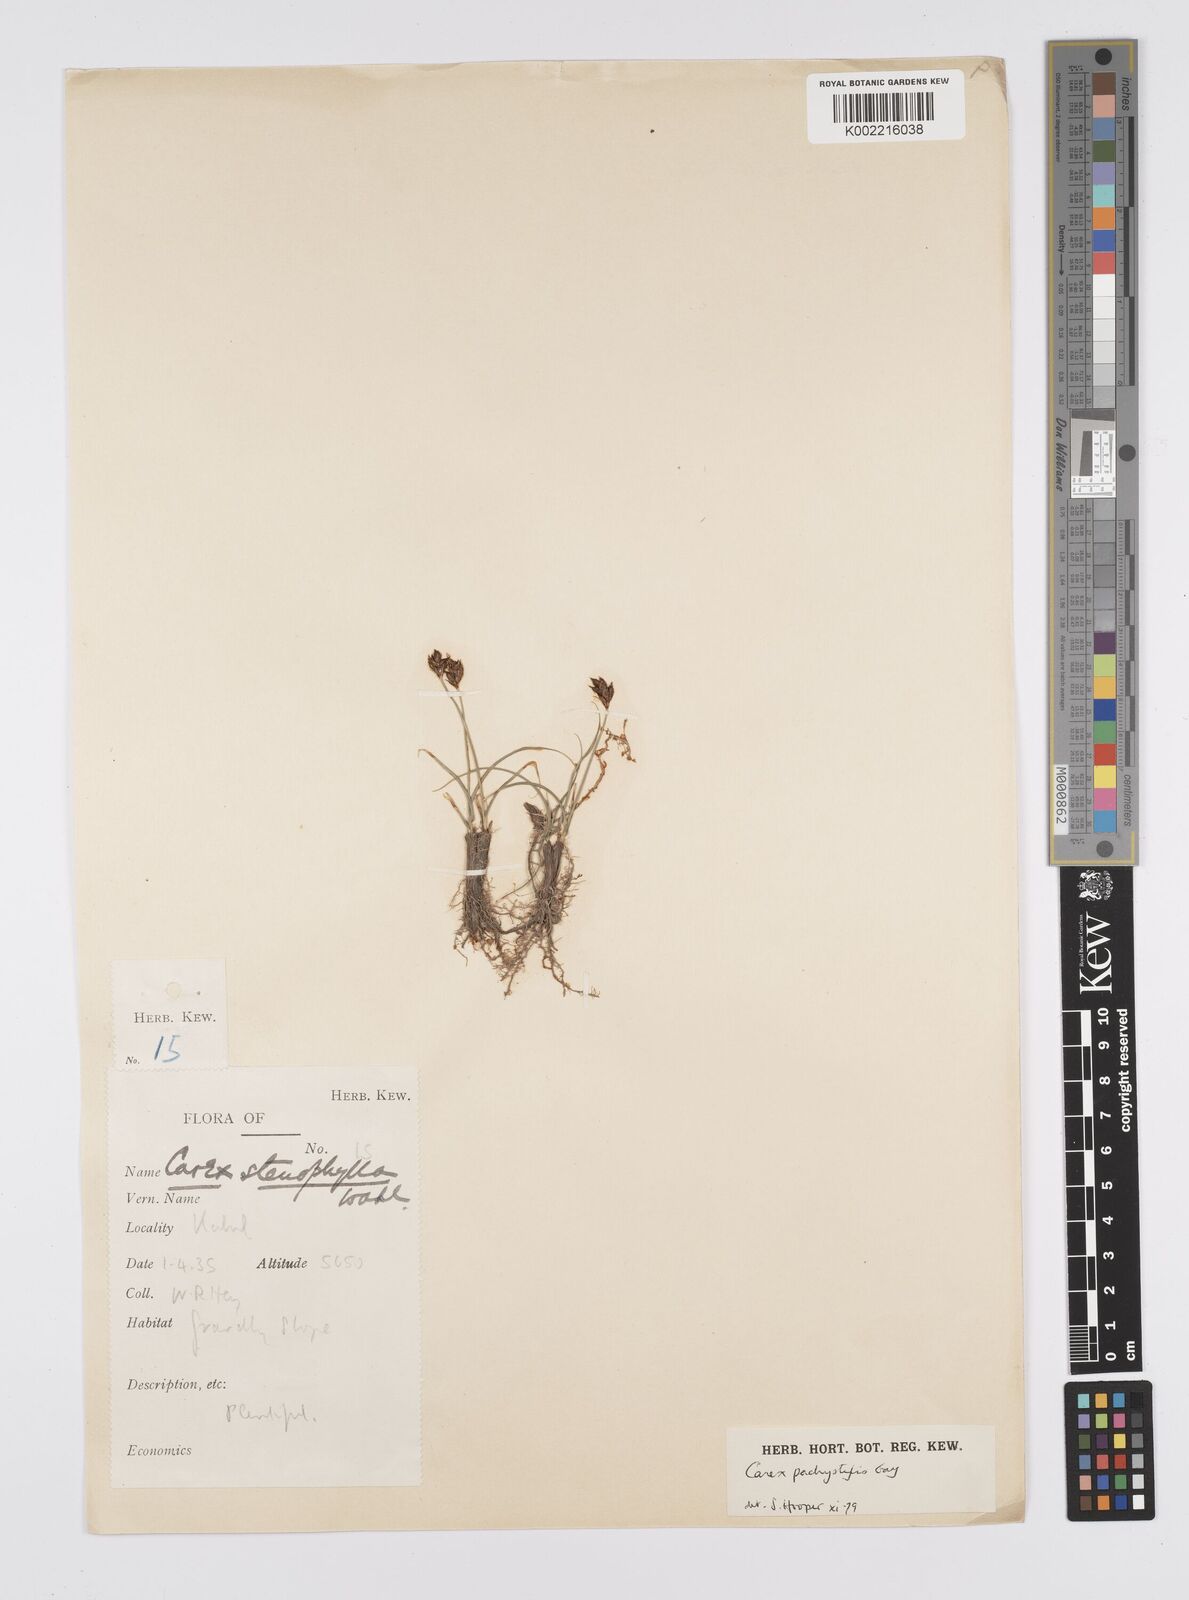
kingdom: Plantae
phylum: Tracheophyta
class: Liliopsida
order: Poales
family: Cyperaceae
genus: Carex
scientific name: Carex pachystylis
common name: Thick-stem sedge
